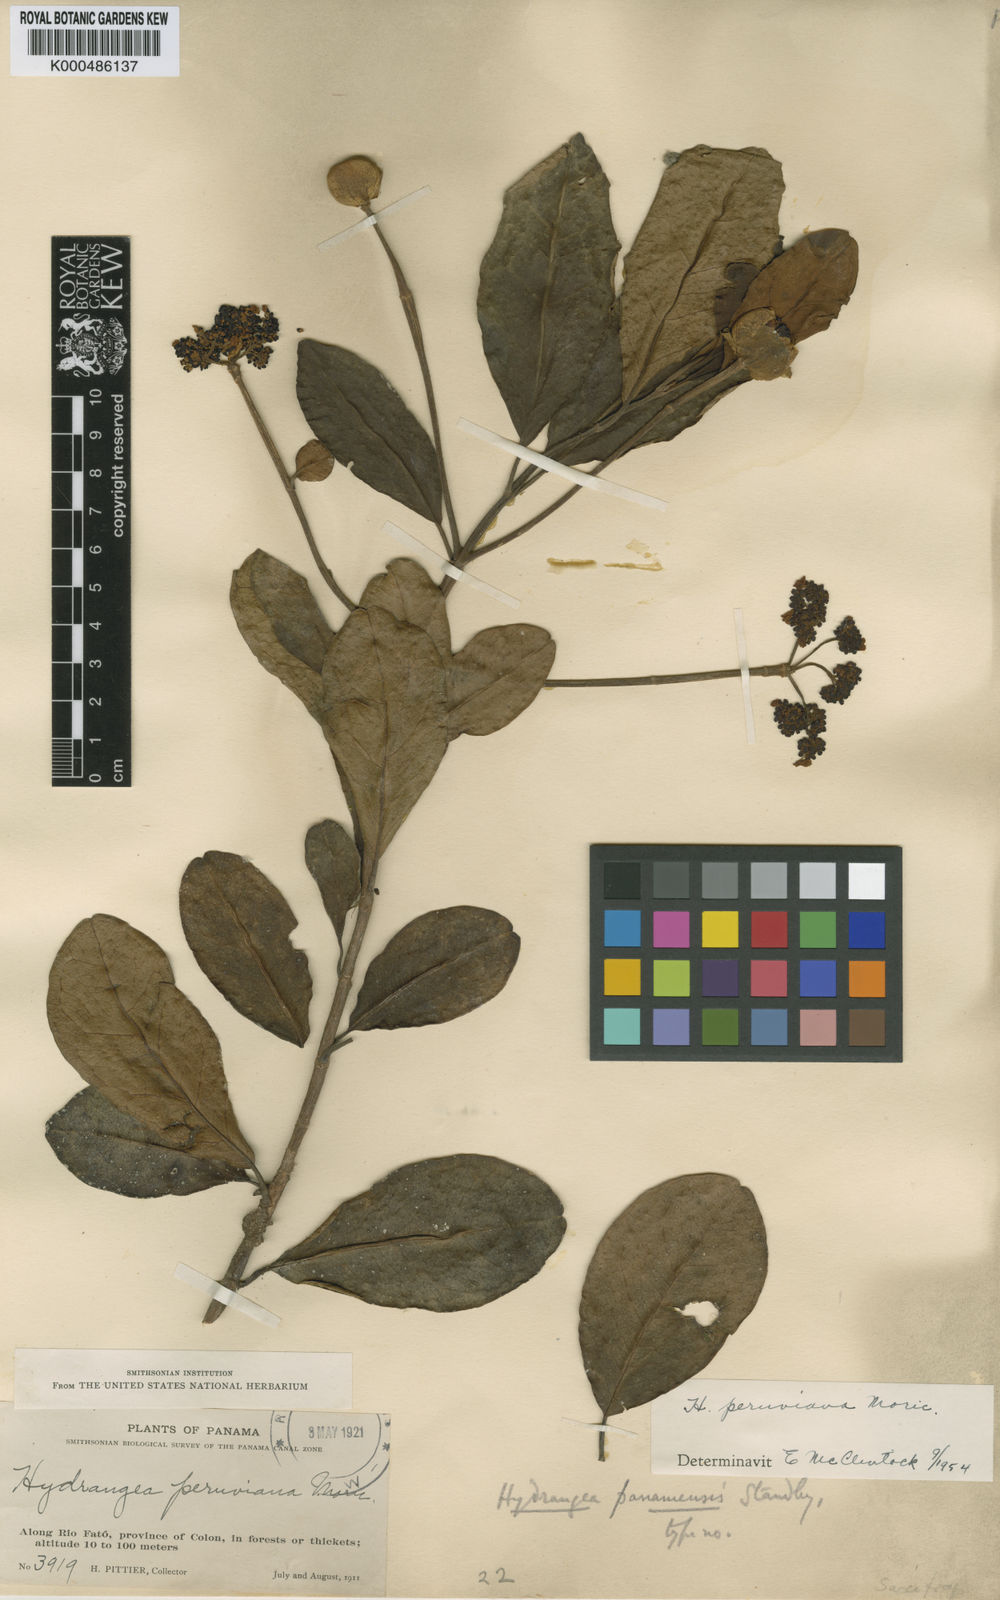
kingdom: Plantae
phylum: Tracheophyta
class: Magnoliopsida
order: Cornales
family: Hydrangeaceae
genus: Hydrangea
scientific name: Hydrangea
